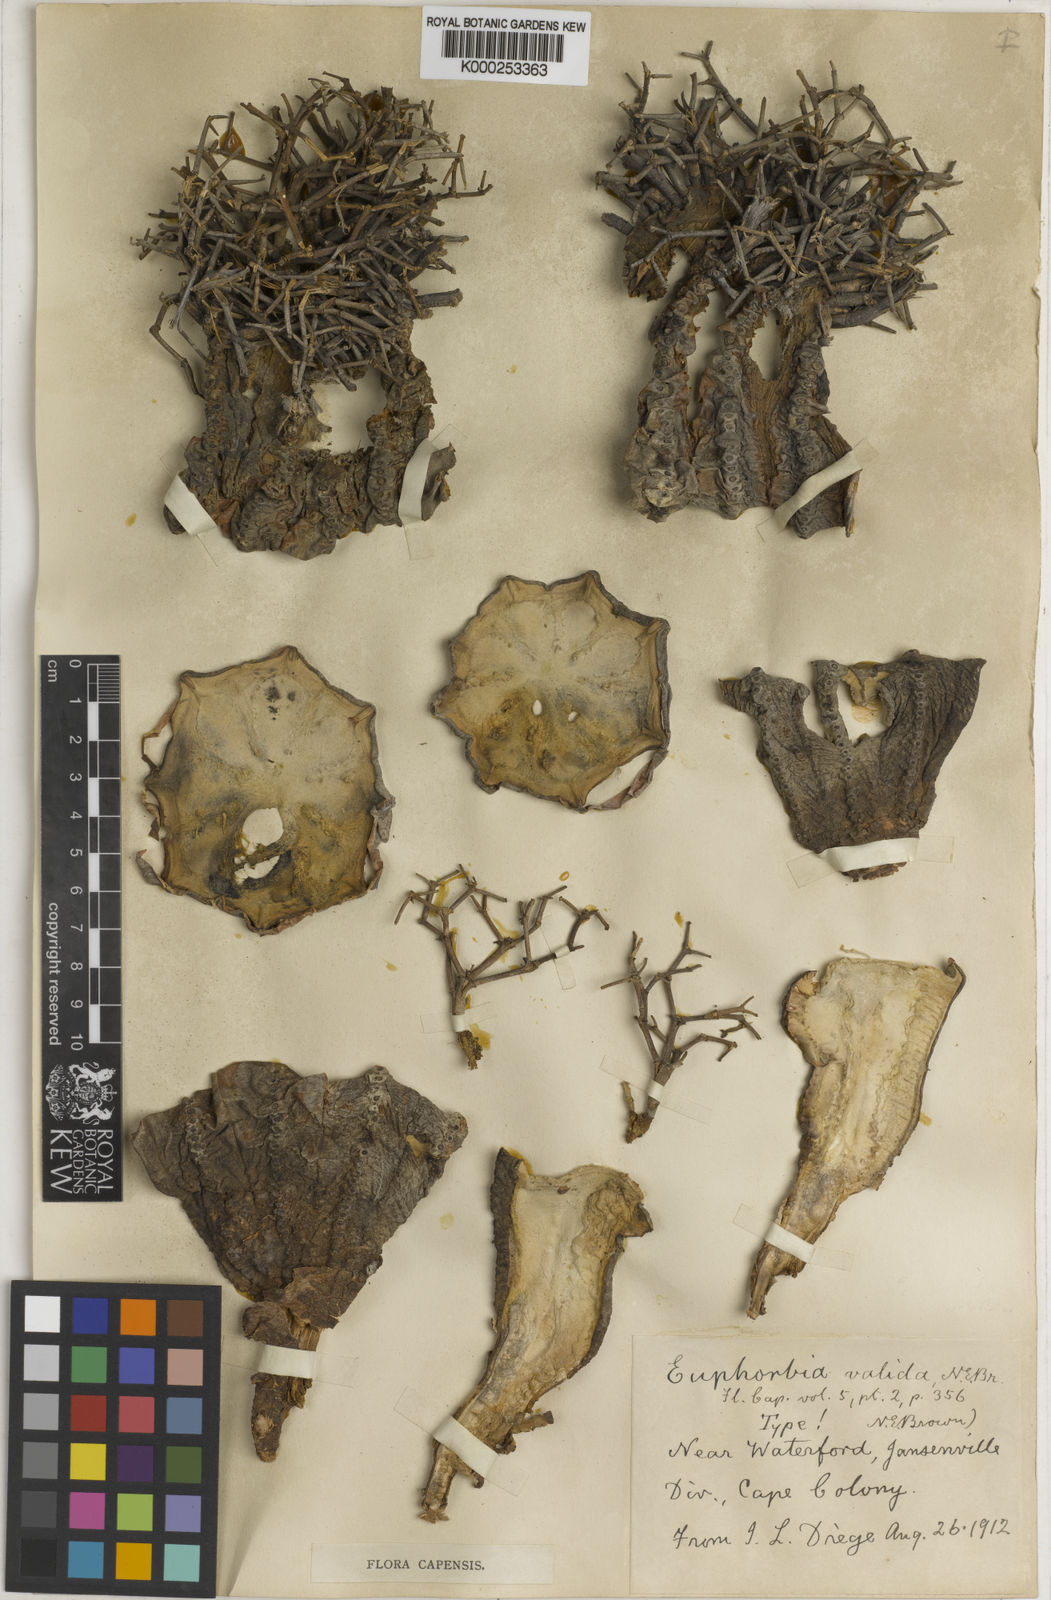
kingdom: Plantae
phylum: Tracheophyta
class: Magnoliopsida
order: Malpighiales
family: Euphorbiaceae
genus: Euphorbia
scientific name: Euphorbia meloformis
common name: Melon spurge
